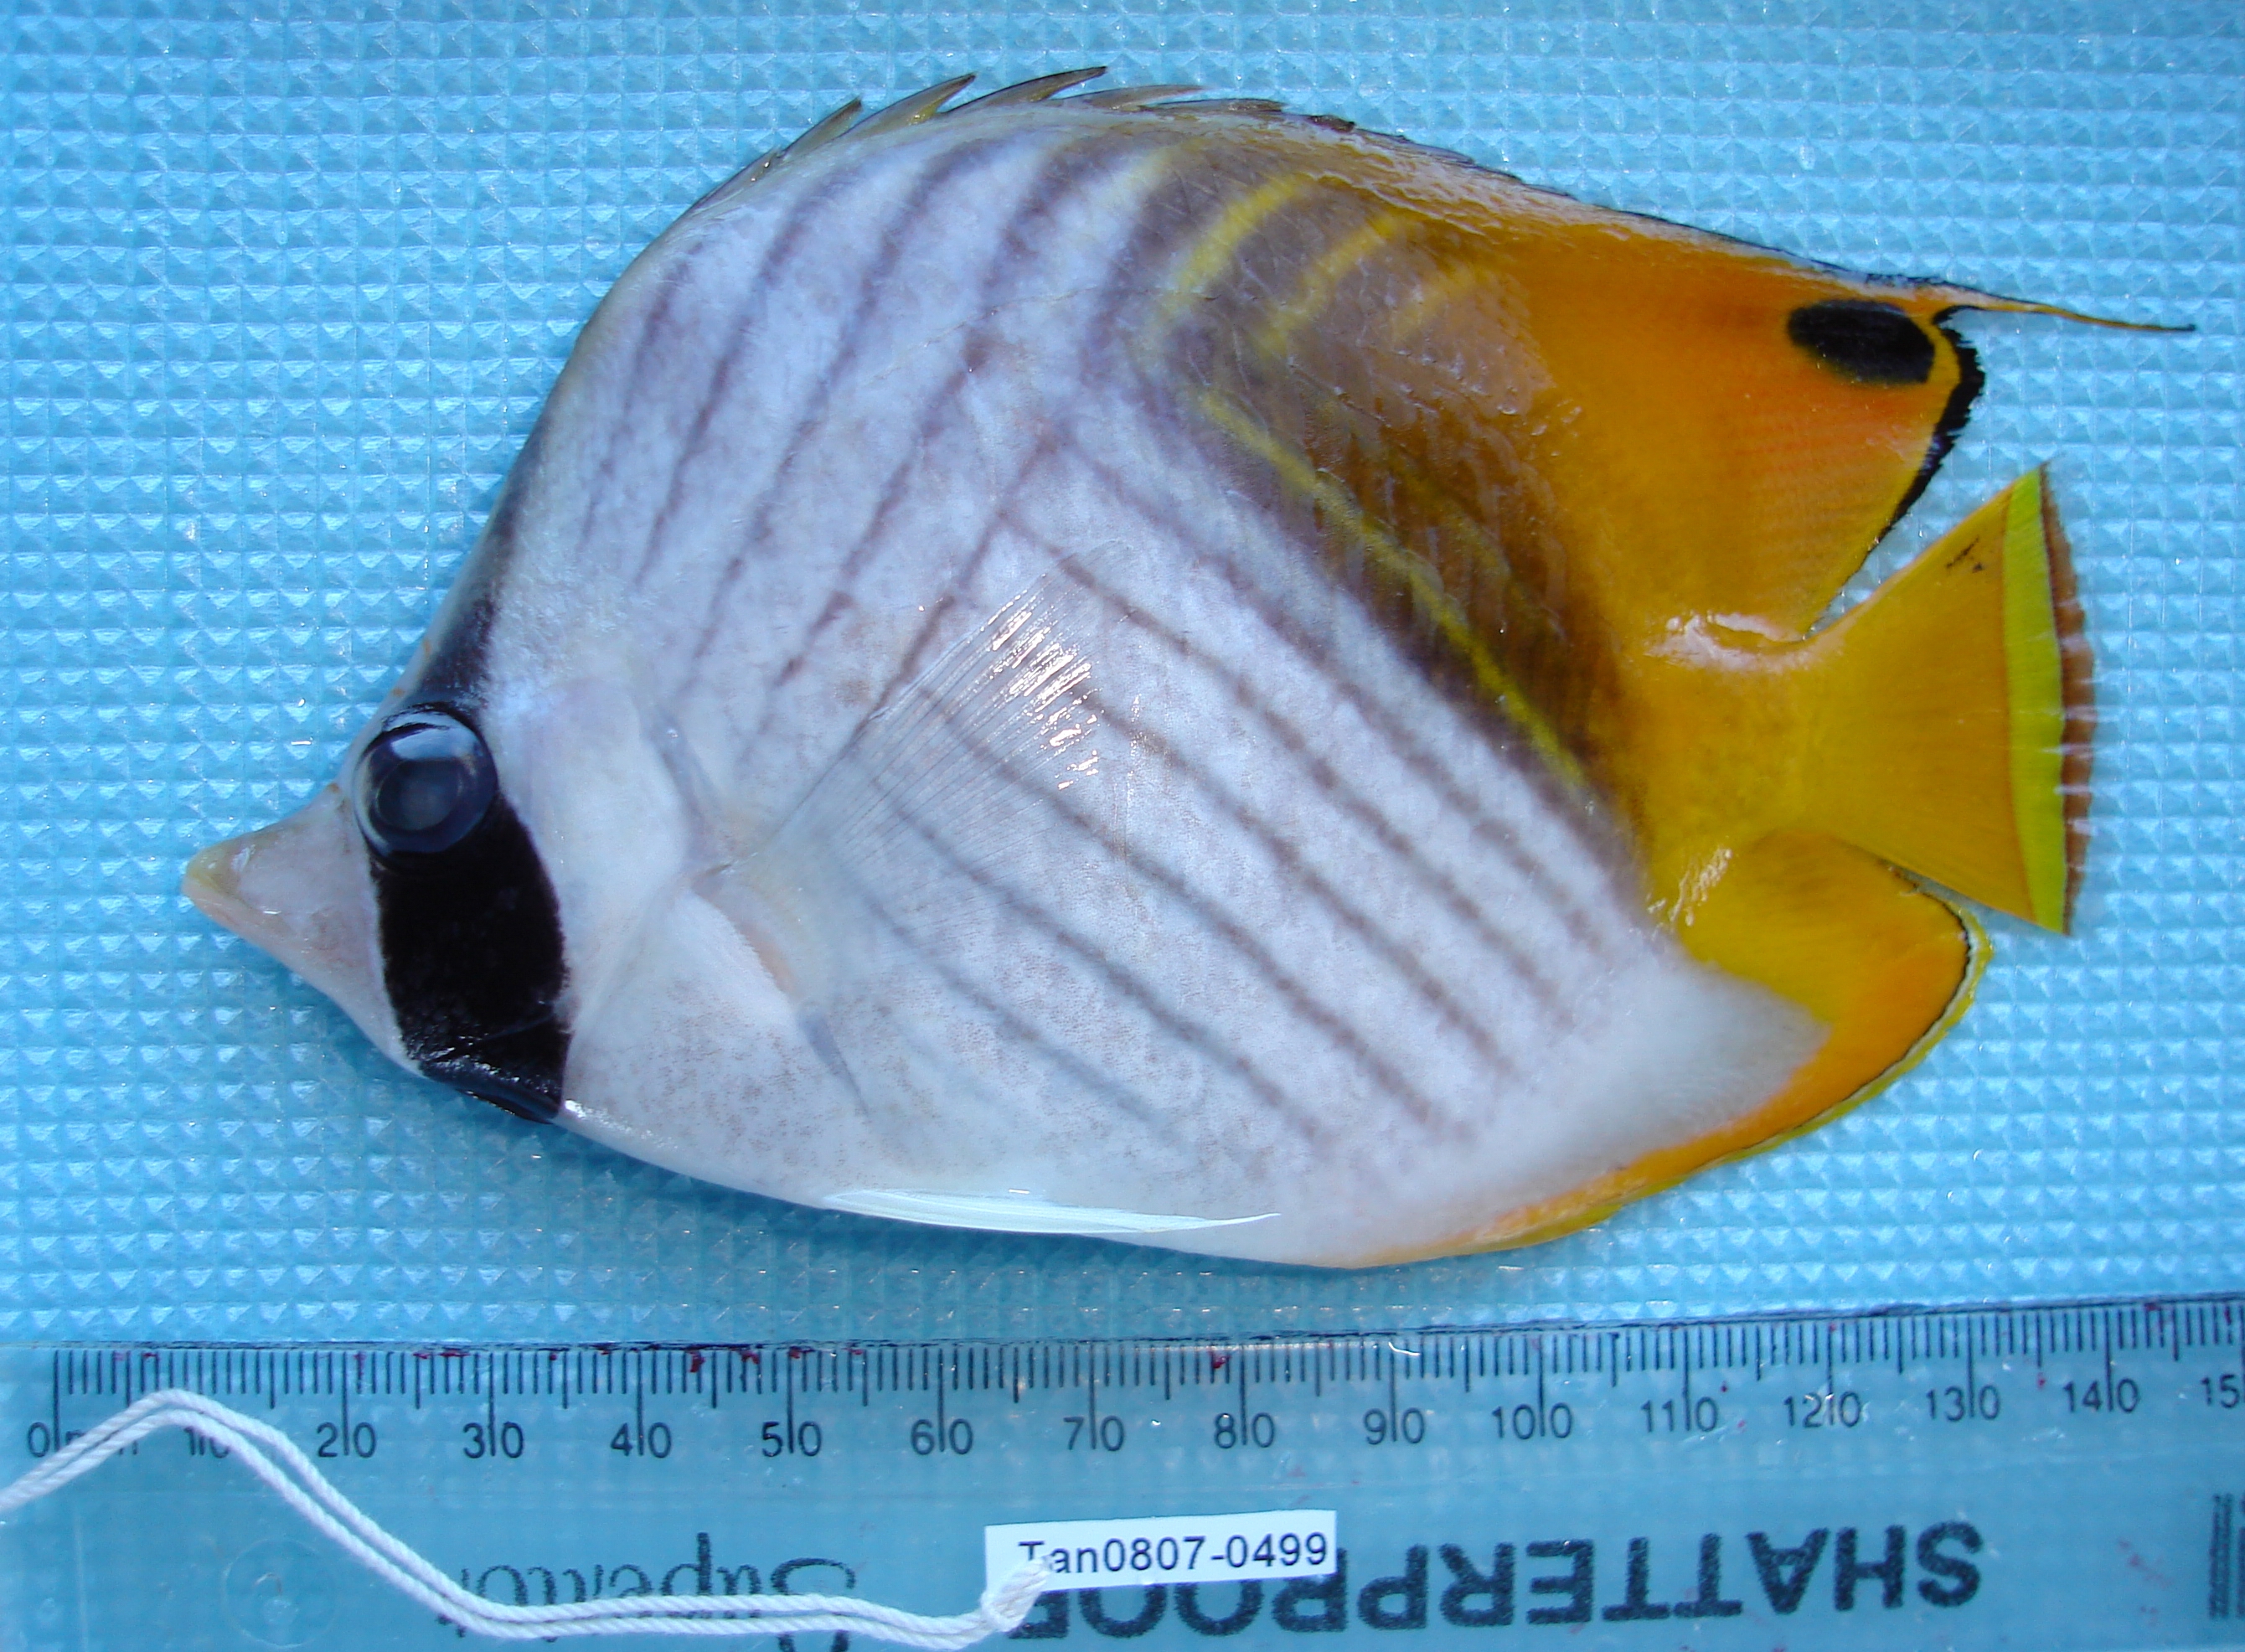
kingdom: Animalia
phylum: Chordata
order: Perciformes
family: Chaetodontidae
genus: Chaetodon
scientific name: Chaetodon auriga
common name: Threadfin butterflyfish
